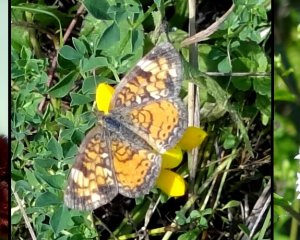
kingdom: Animalia
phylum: Arthropoda
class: Insecta
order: Lepidoptera
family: Nymphalidae
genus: Phyciodes
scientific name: Phyciodes
